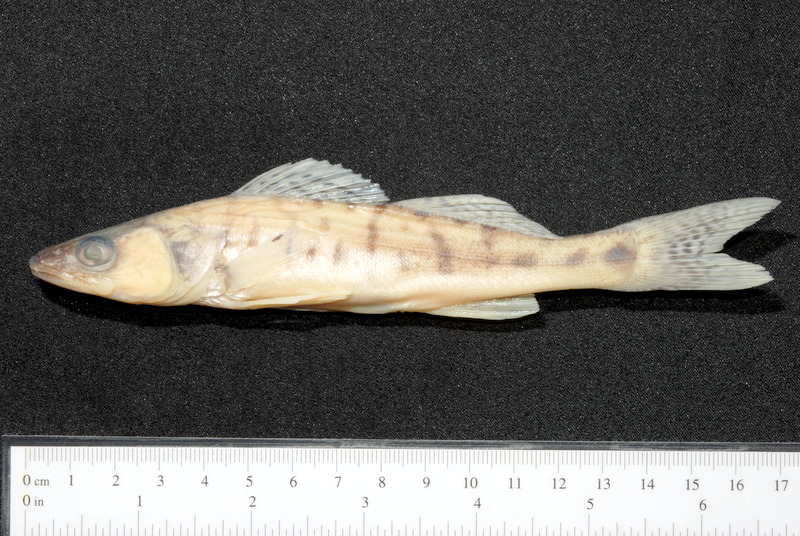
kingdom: Animalia
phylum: Chordata
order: Perciformes
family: Percidae
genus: Sander
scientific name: Sander lucioperca
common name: Pikeperch
